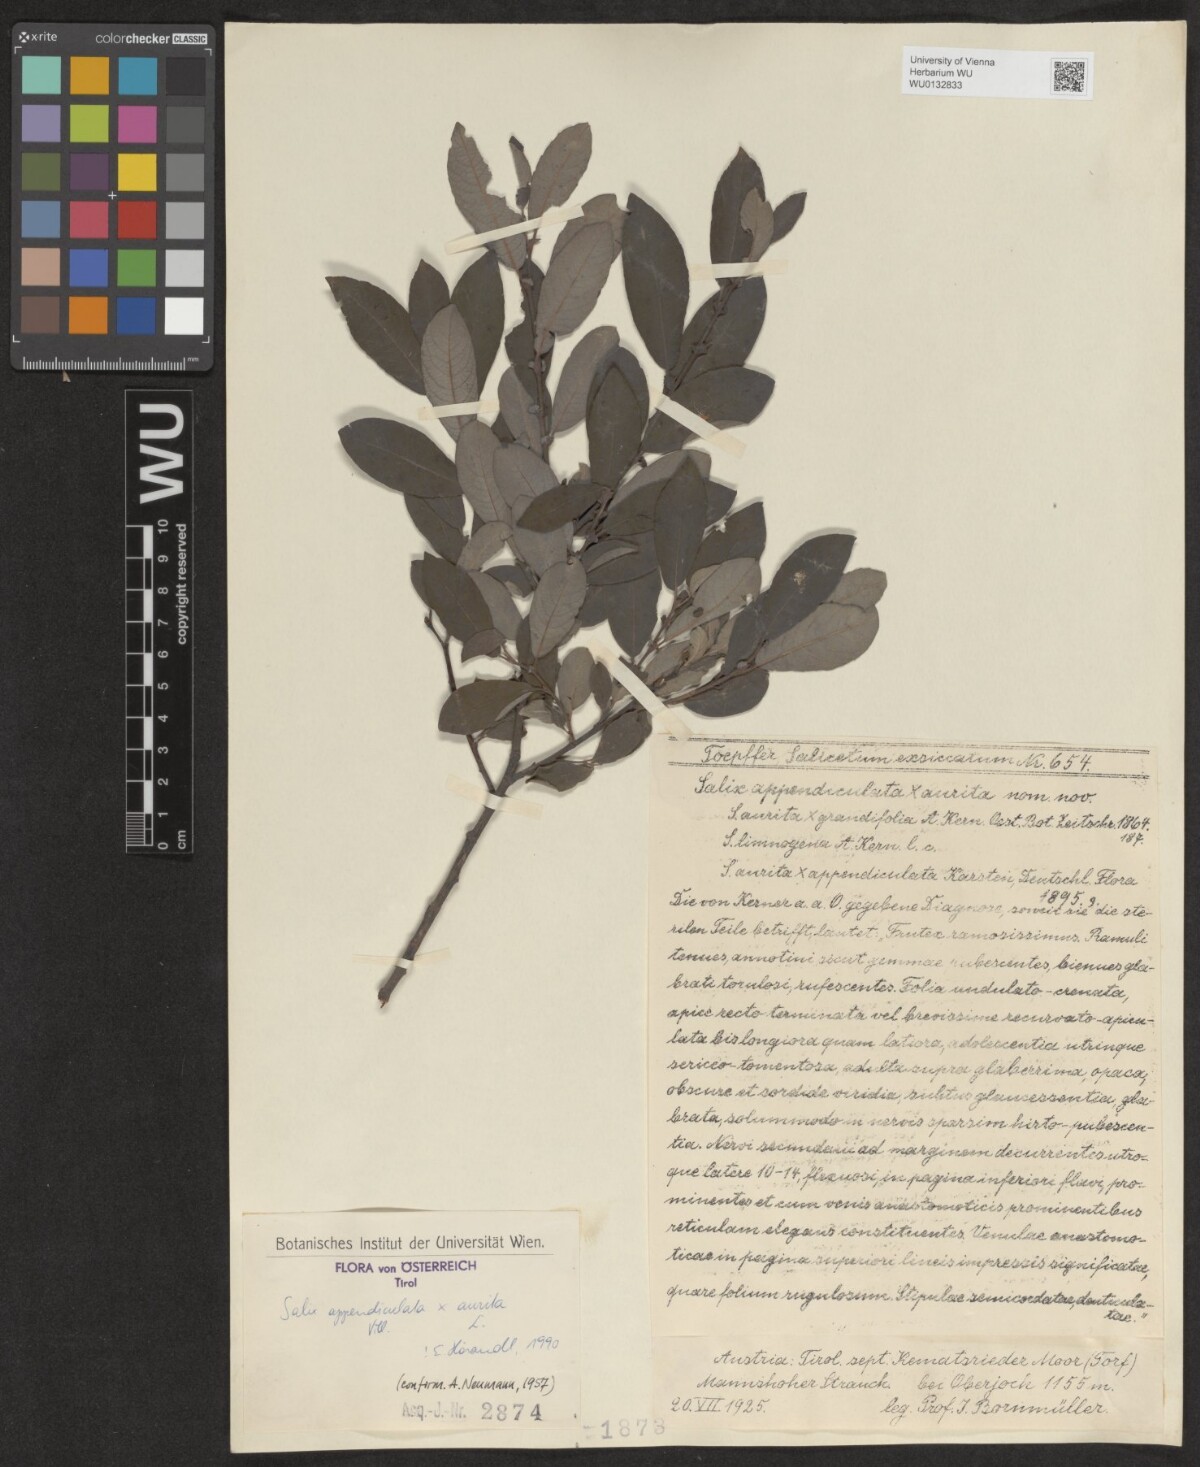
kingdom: Plantae
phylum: Tracheophyta
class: Magnoliopsida
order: Malpighiales
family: Salicaceae
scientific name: Salicaceae
